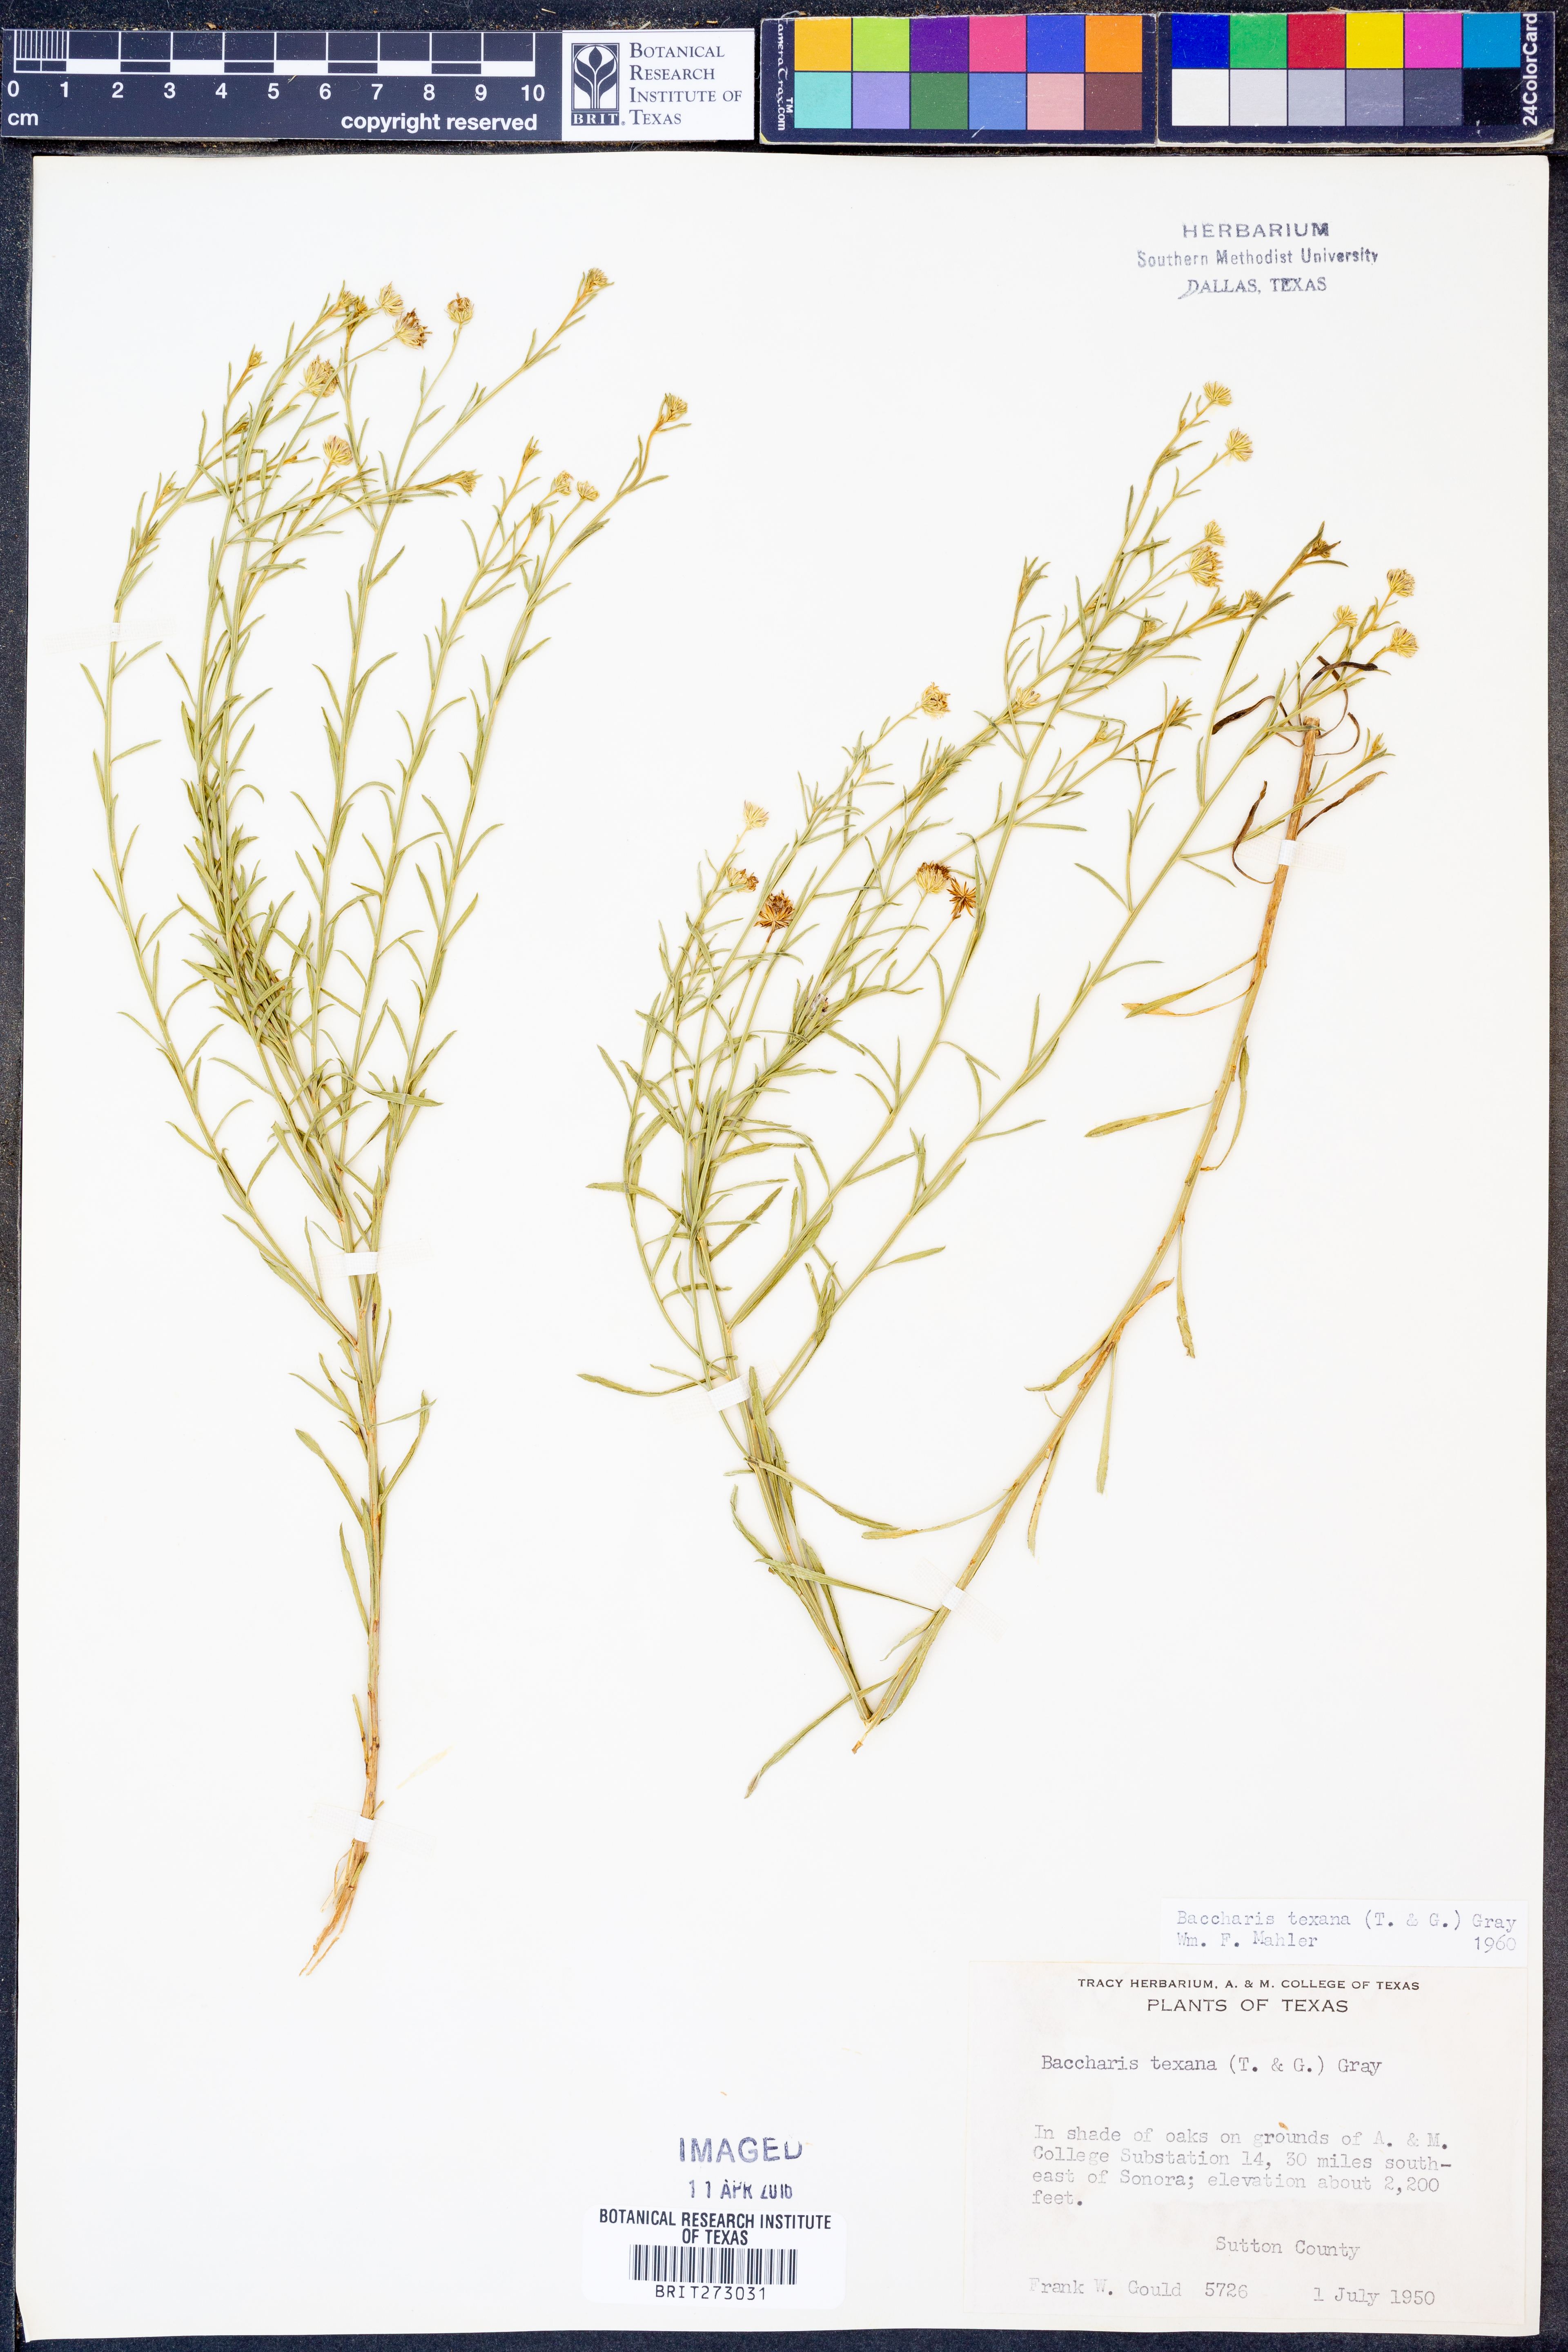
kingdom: Plantae
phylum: Tracheophyta
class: Magnoliopsida
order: Asterales
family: Asteraceae
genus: Baccharis
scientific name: Baccharis texana
